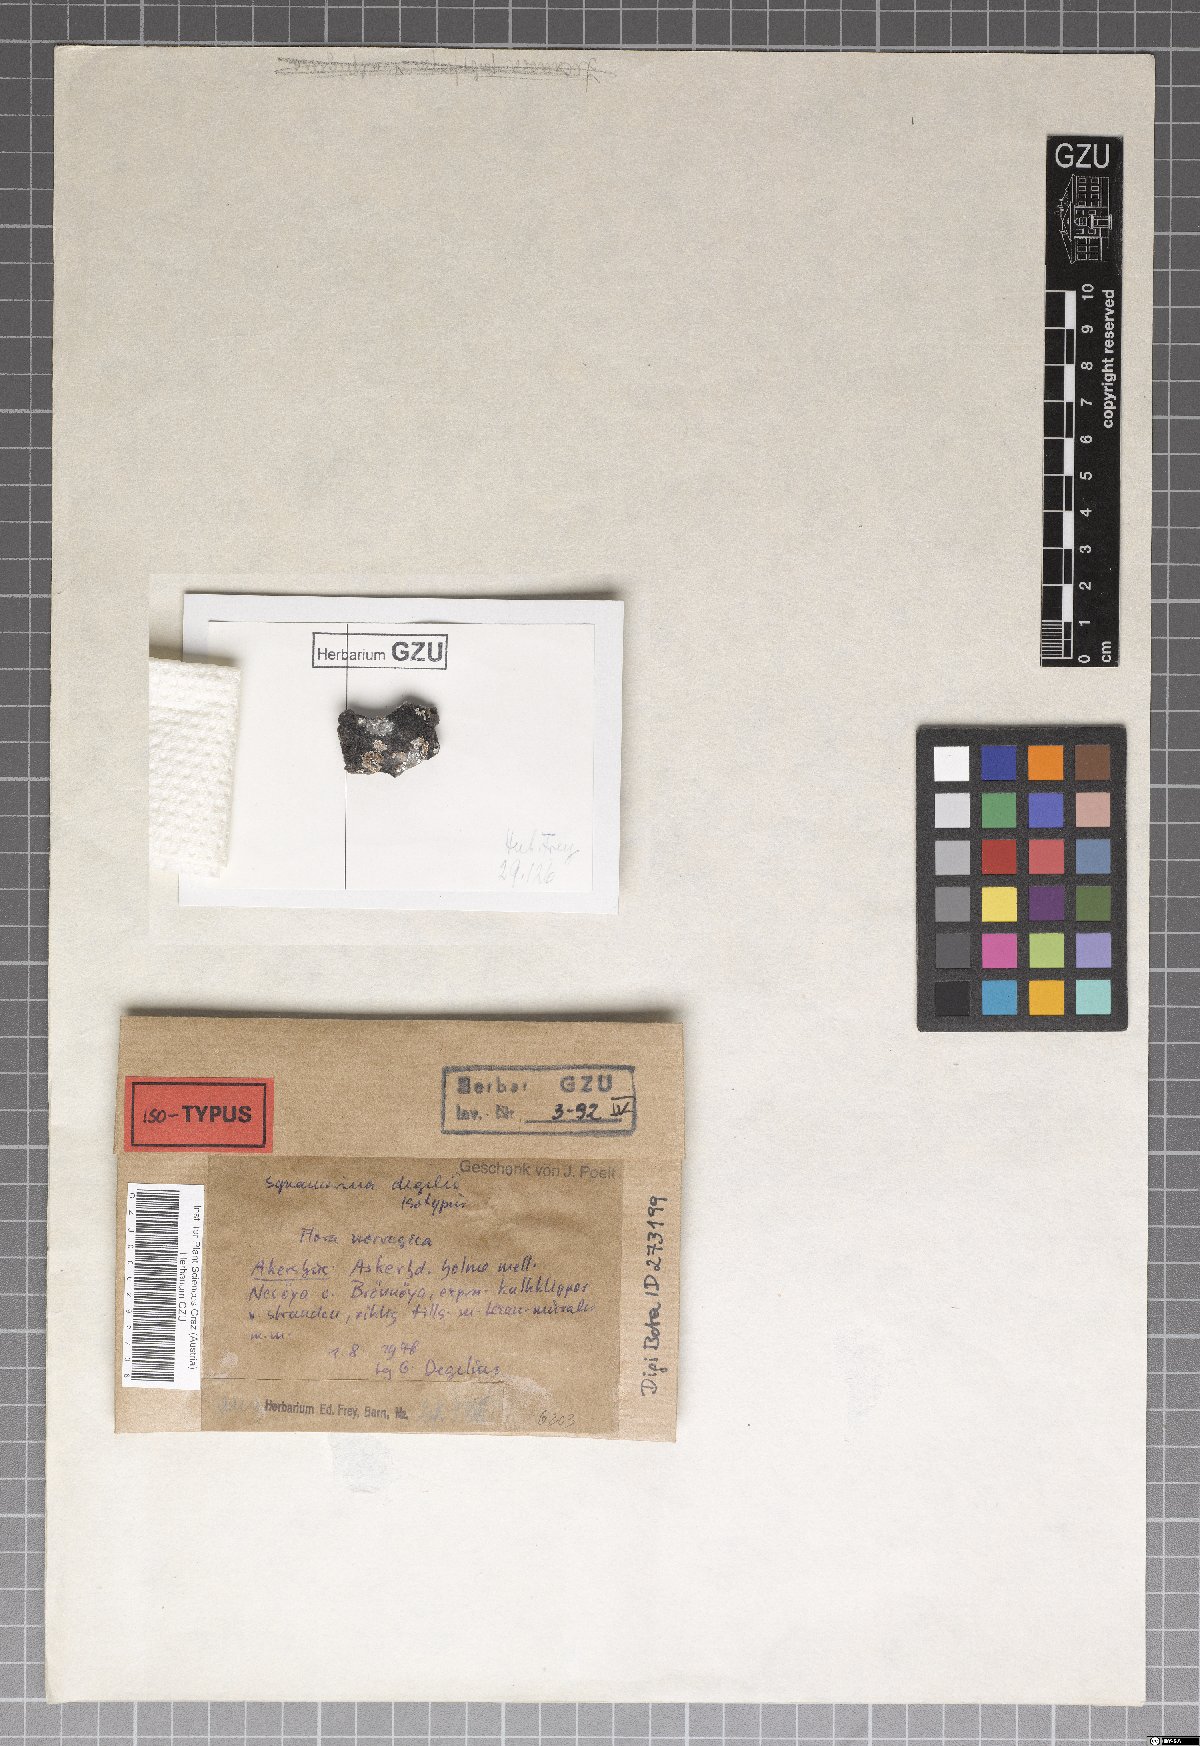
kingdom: Fungi
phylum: Ascomycota
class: Lecanoromycetes
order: Lecanorales
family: Lecanoraceae
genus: Lecanora
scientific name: Lecanora neodegelii
